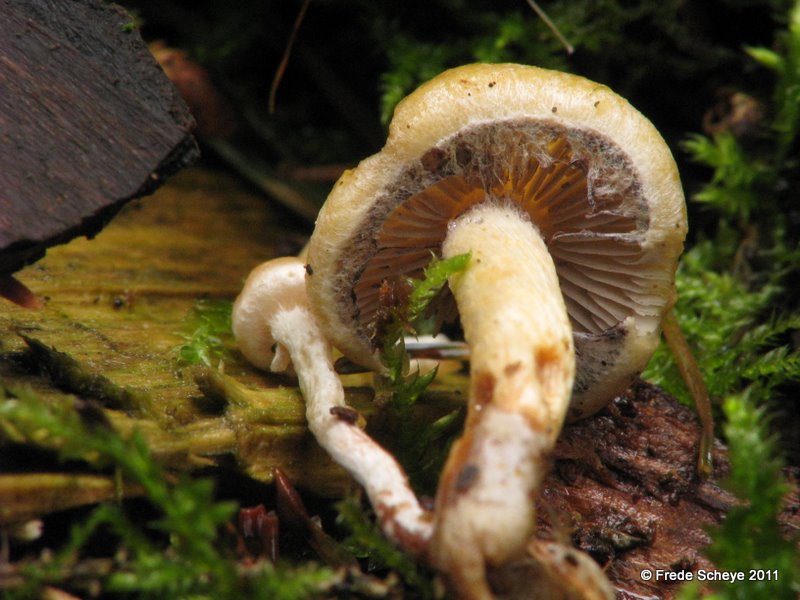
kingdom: Fungi
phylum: Basidiomycota
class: Agaricomycetes
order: Agaricales
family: Strophariaceae
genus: Hypholoma
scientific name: Hypholoma capnoides
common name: gran-svovlhat
